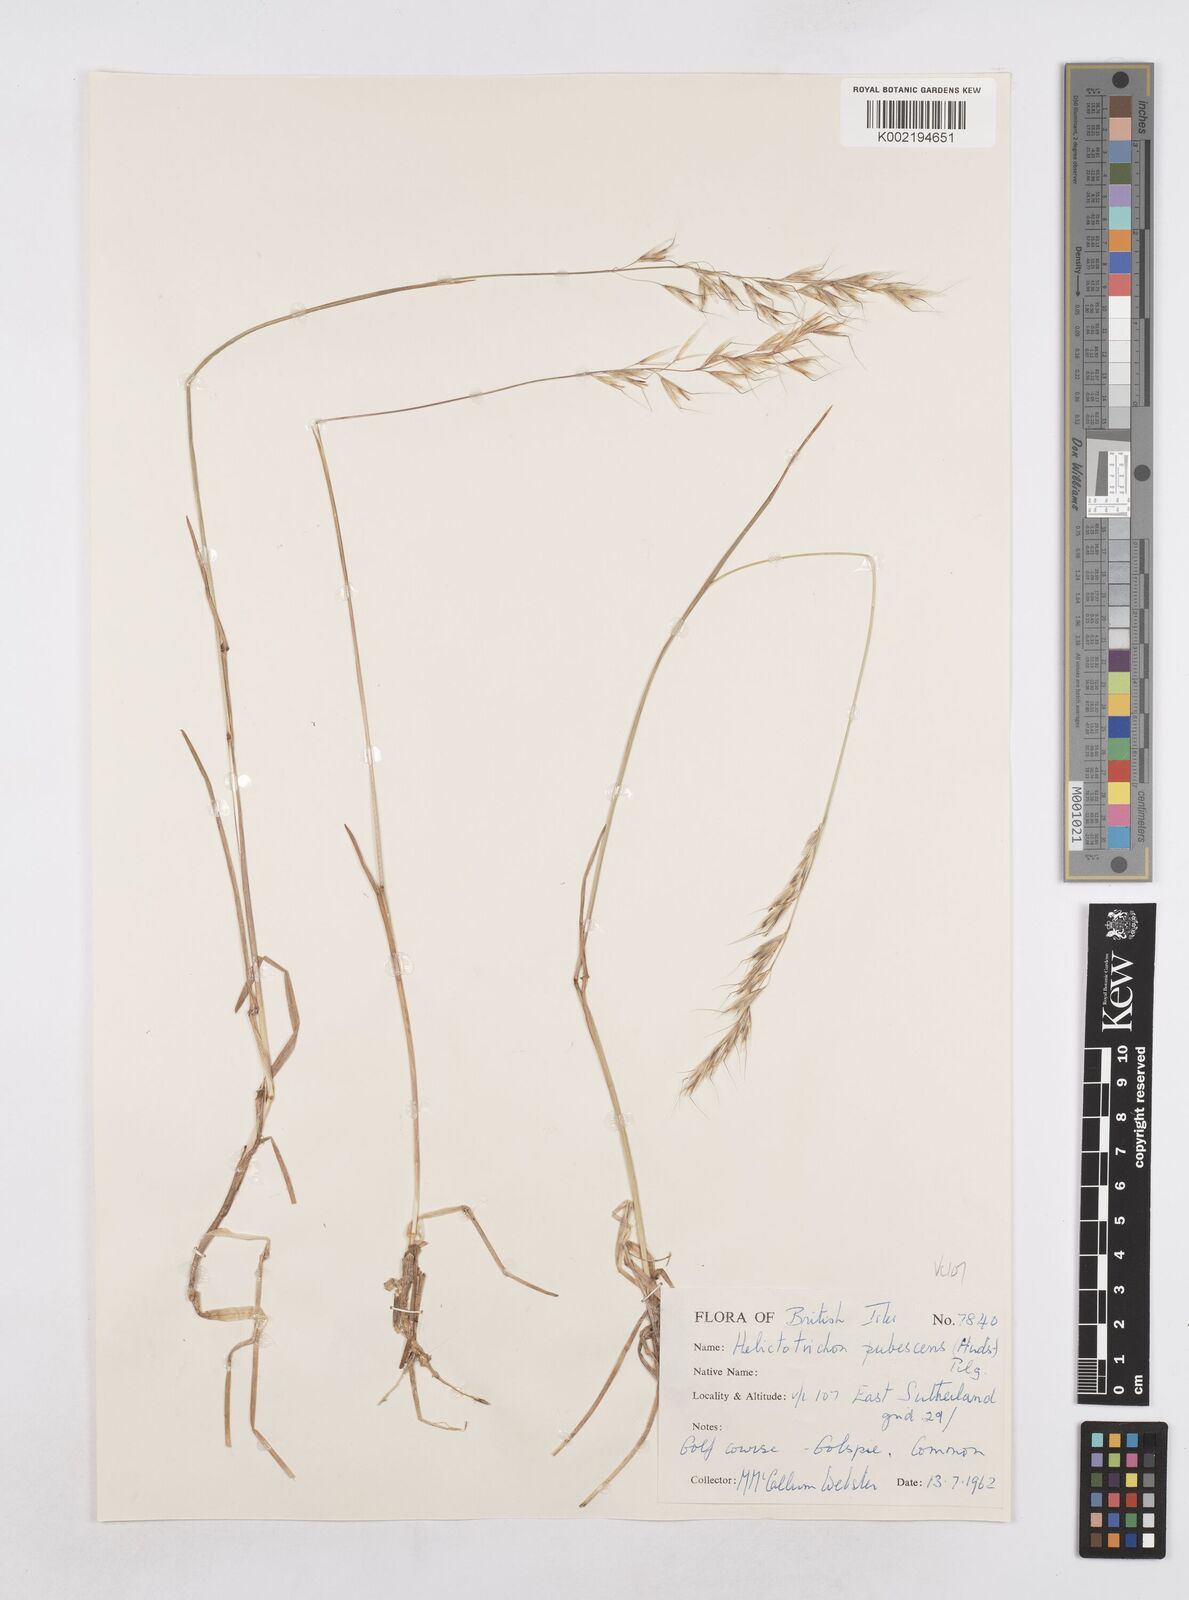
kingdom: Plantae
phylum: Tracheophyta
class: Liliopsida
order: Poales
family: Poaceae
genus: Avenula
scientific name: Avenula pubescens
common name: Downy alpine oatgrass
